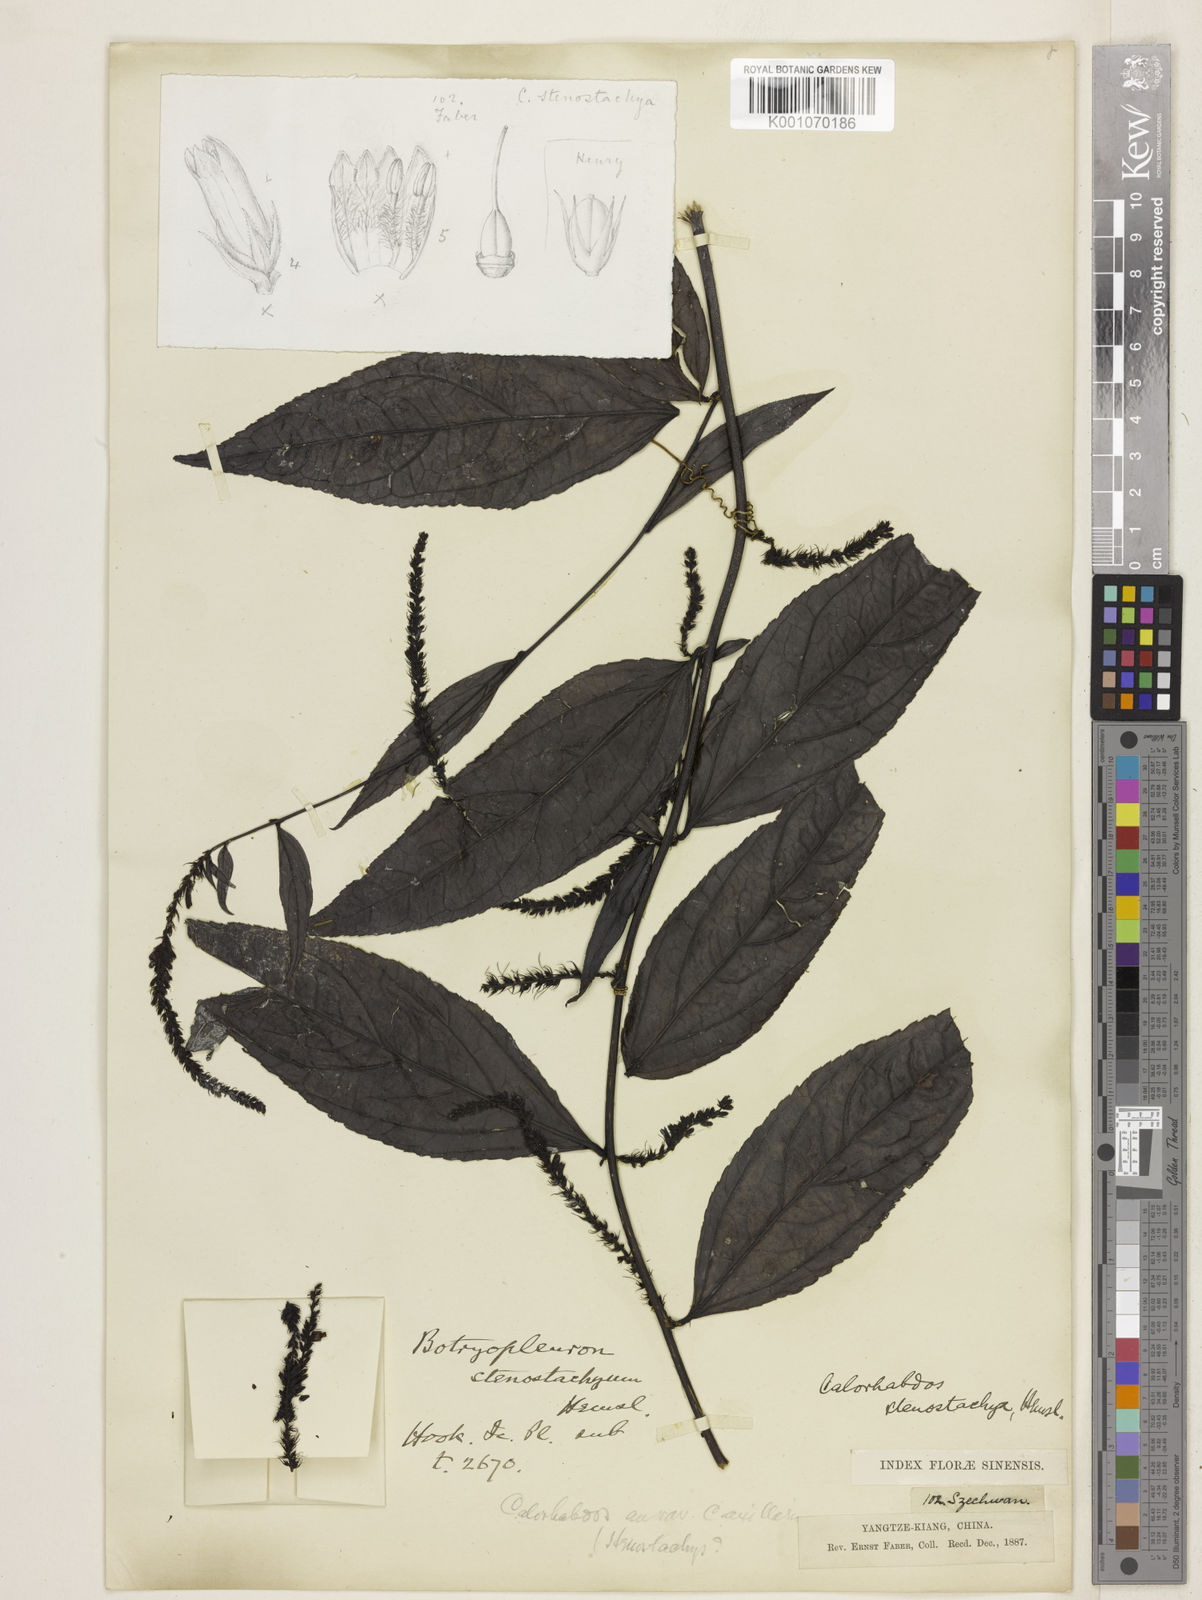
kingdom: Plantae
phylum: Tracheophyta
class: Magnoliopsida
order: Lamiales
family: Plantaginaceae
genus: Veronicastrum
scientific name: Veronicastrum stenostachyum
